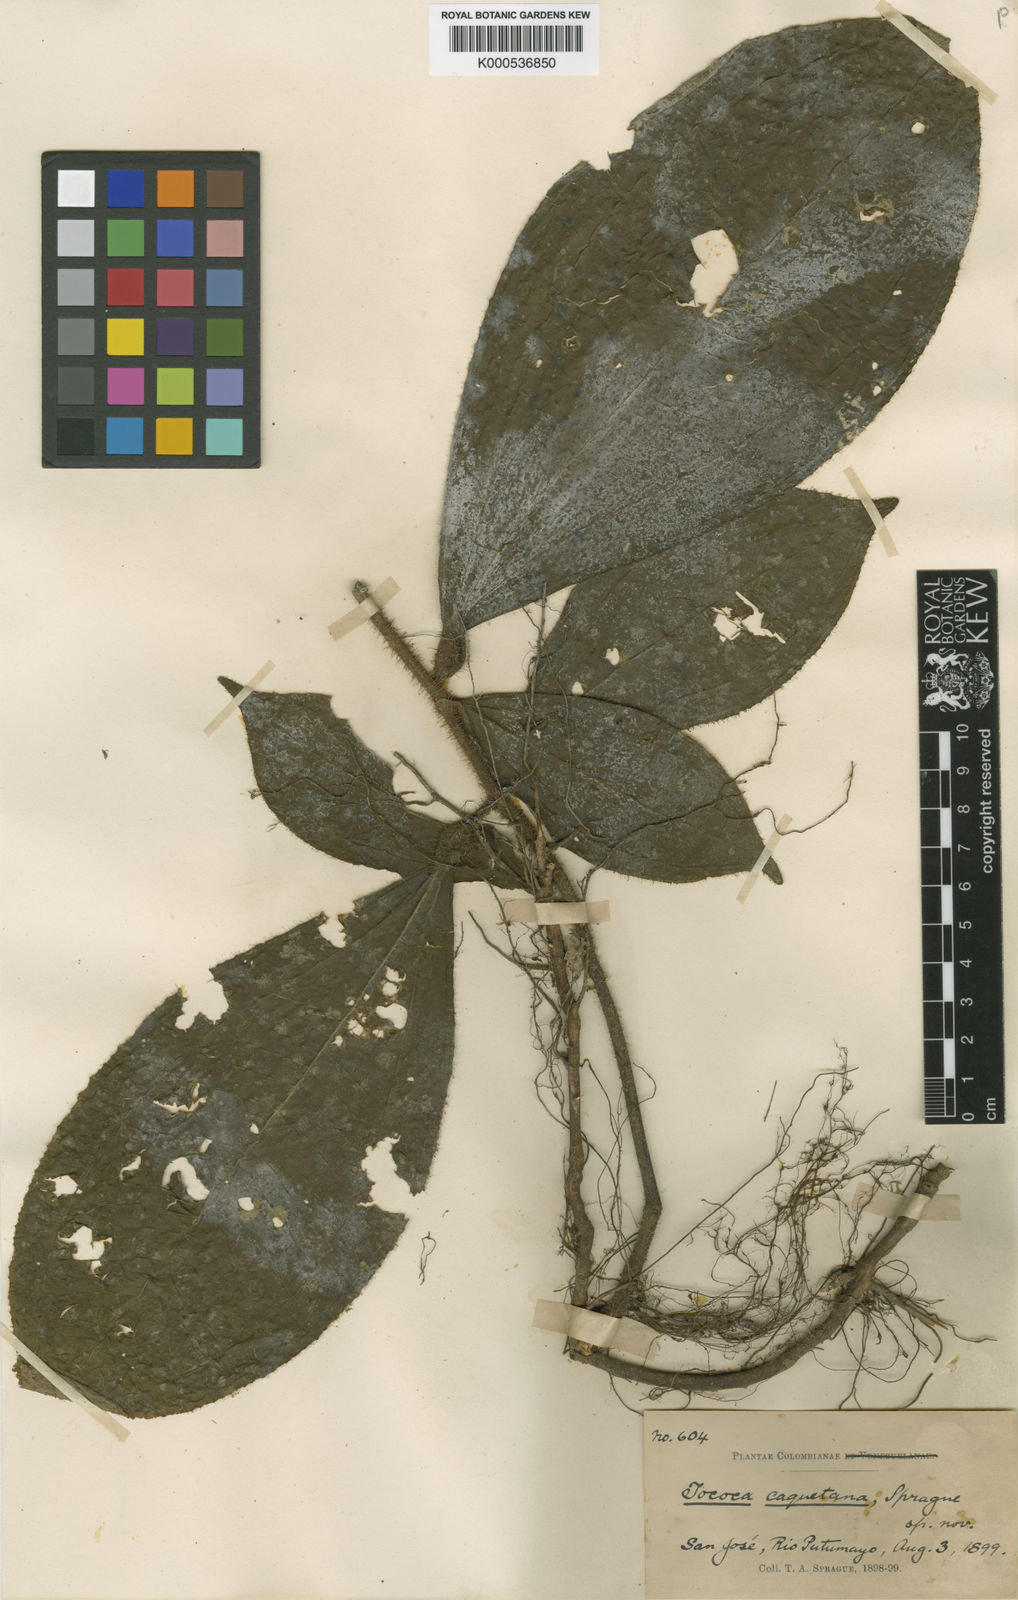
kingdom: Plantae
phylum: Tracheophyta
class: Magnoliopsida
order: Myrtales
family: Melastomataceae
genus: Miconia
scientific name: Miconia caquetana
